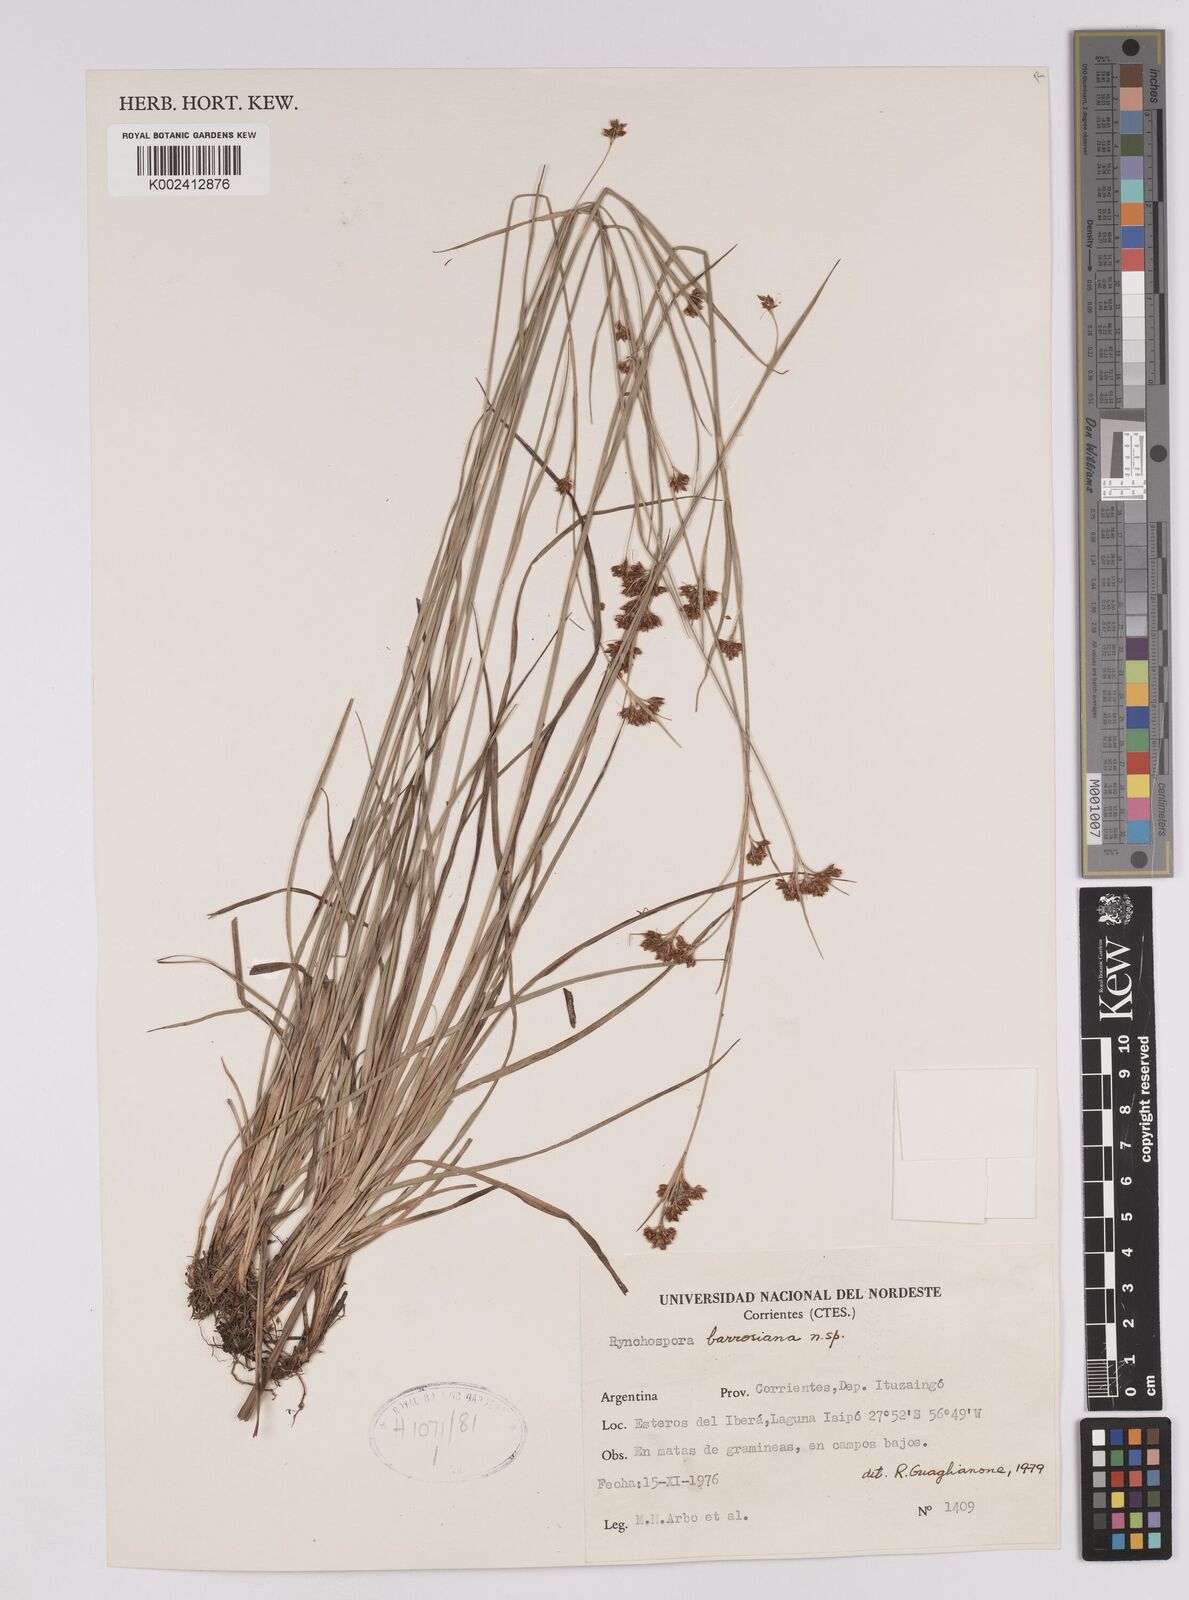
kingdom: Plantae
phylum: Tracheophyta
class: Liliopsida
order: Poales
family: Cyperaceae
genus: Rhynchospora
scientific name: Rhynchospora barrosiana
